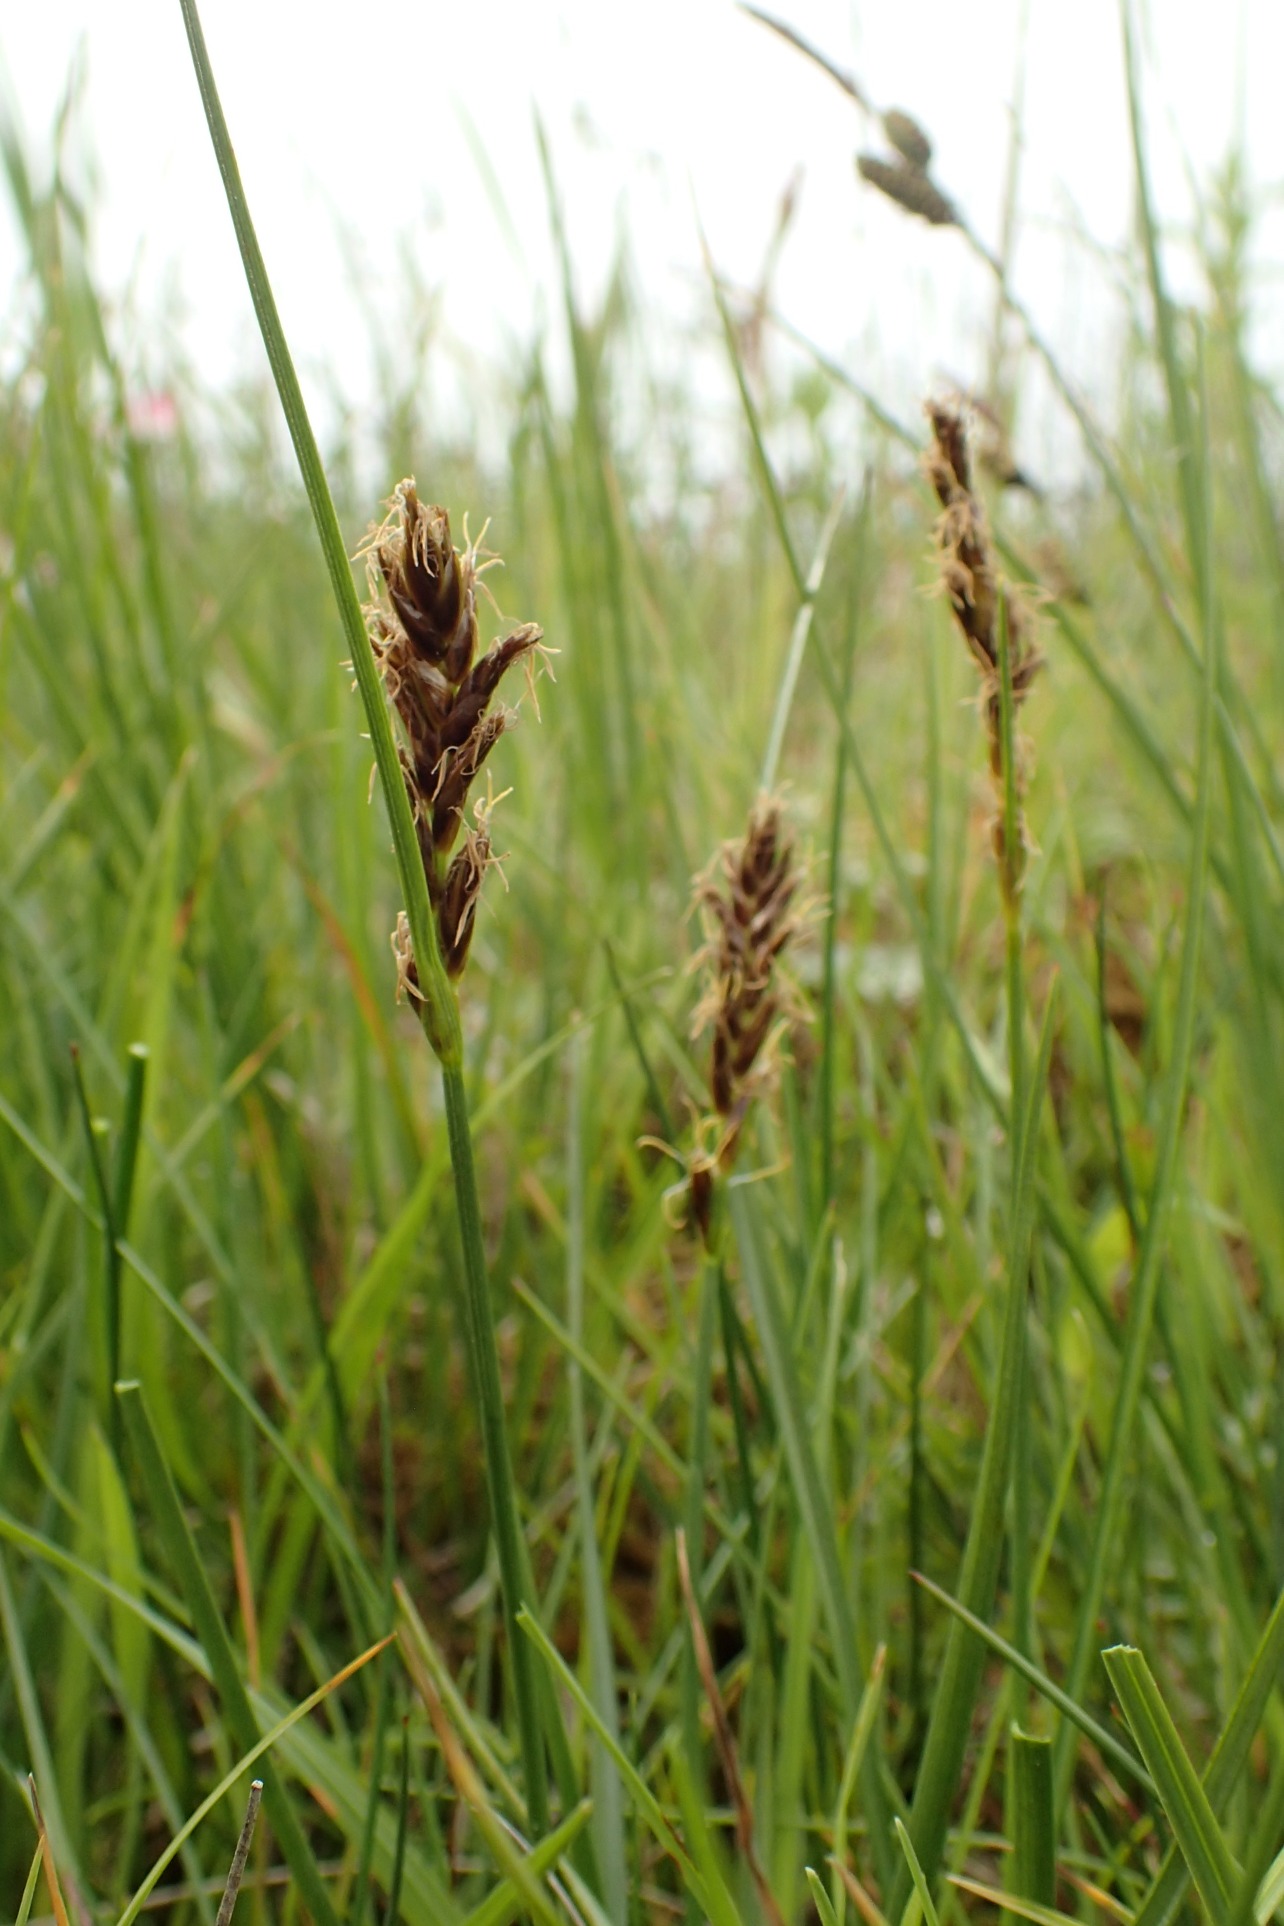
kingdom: Plantae
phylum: Tracheophyta
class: Liliopsida
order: Poales
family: Cyperaceae
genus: Blysmus
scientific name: Blysmus compressus
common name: Fladtrykt kogleaks
